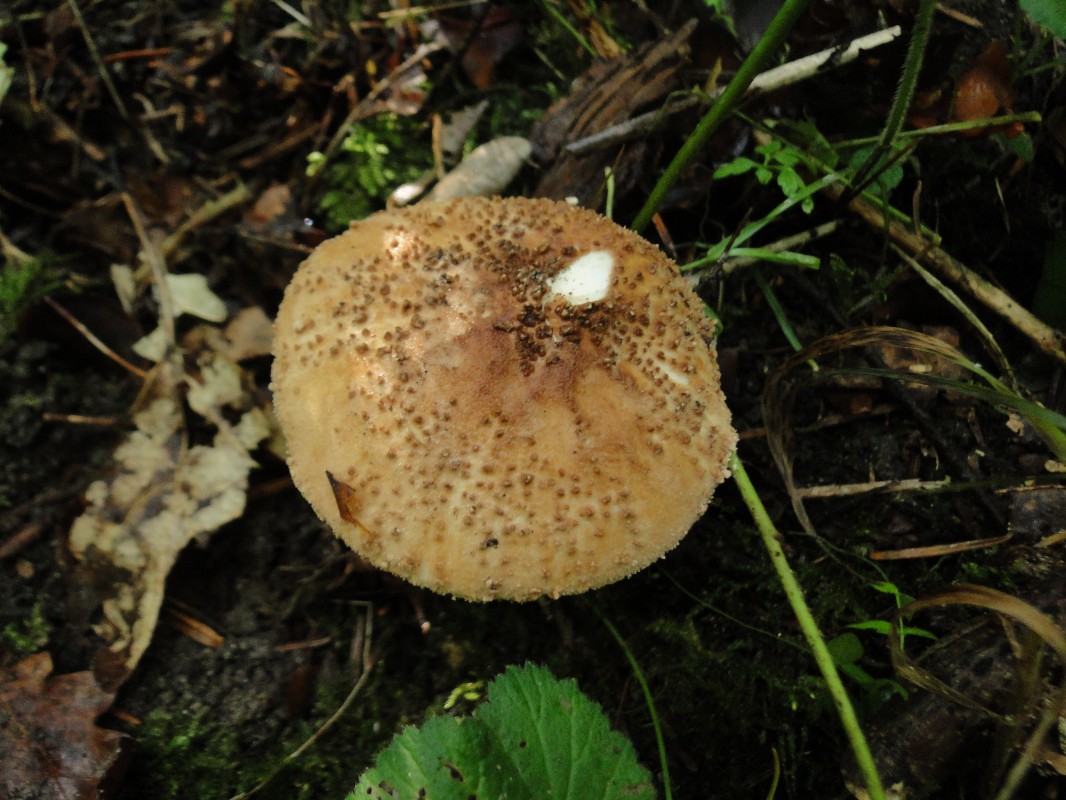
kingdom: Fungi
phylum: Basidiomycota
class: Agaricomycetes
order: Agaricales
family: Agaricaceae
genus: Echinoderma
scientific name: Echinoderma asperum
